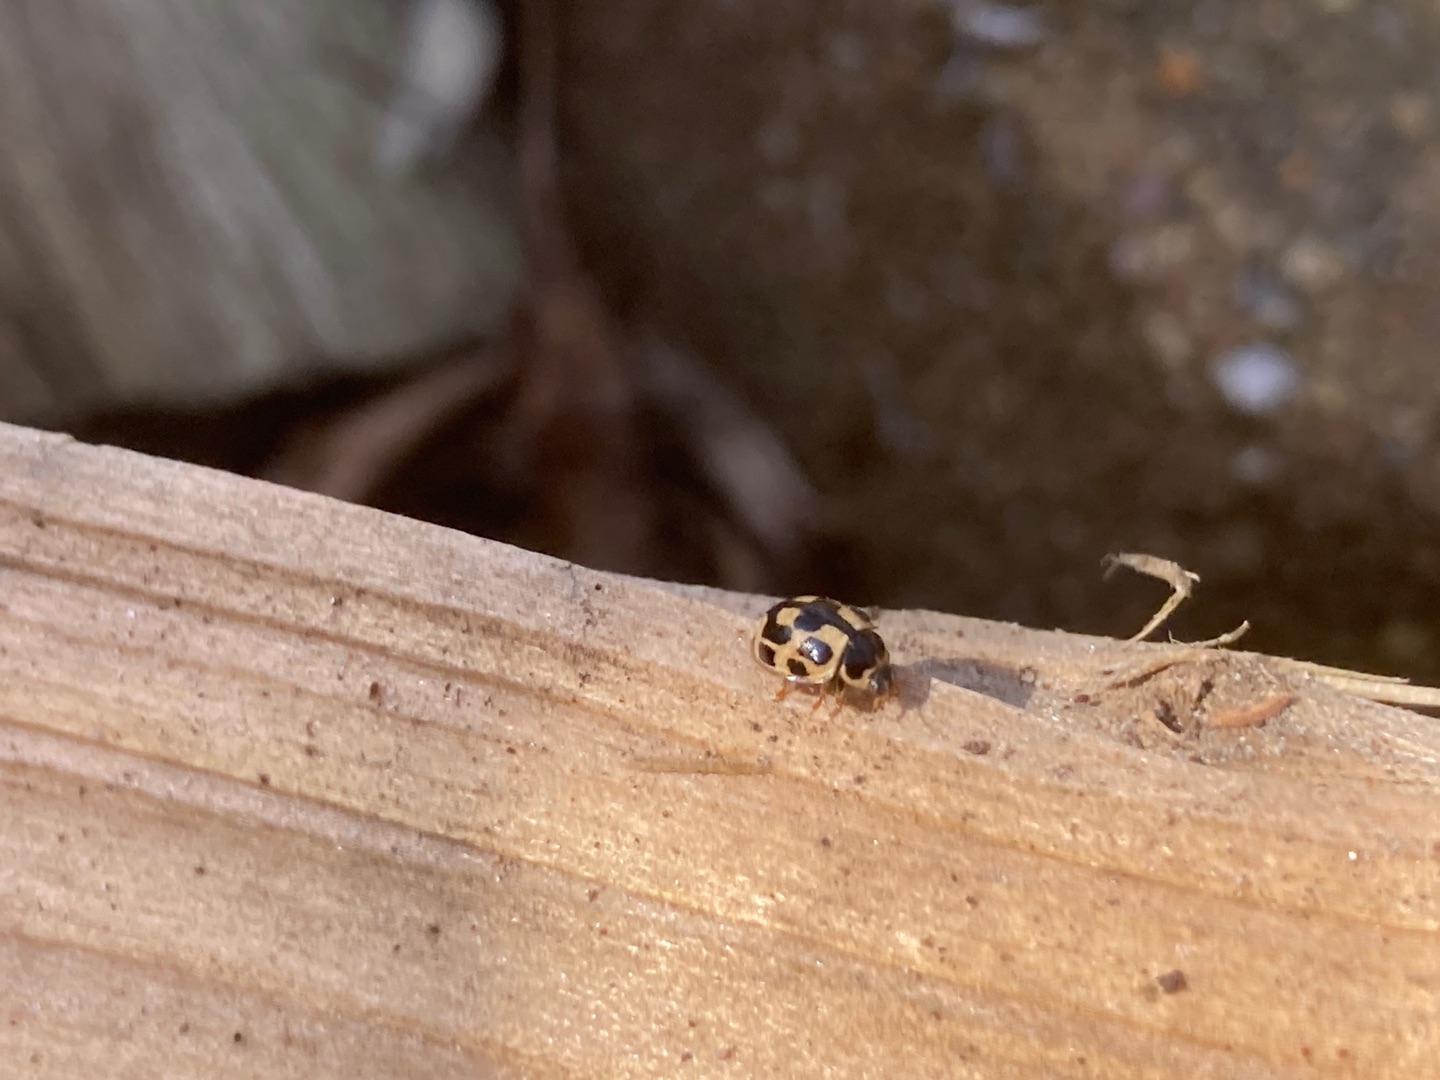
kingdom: Animalia
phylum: Arthropoda
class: Insecta
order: Coleoptera
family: Coccinellidae
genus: Propylaea
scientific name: Propylaea quatuordecimpunctata
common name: Skakbræt
